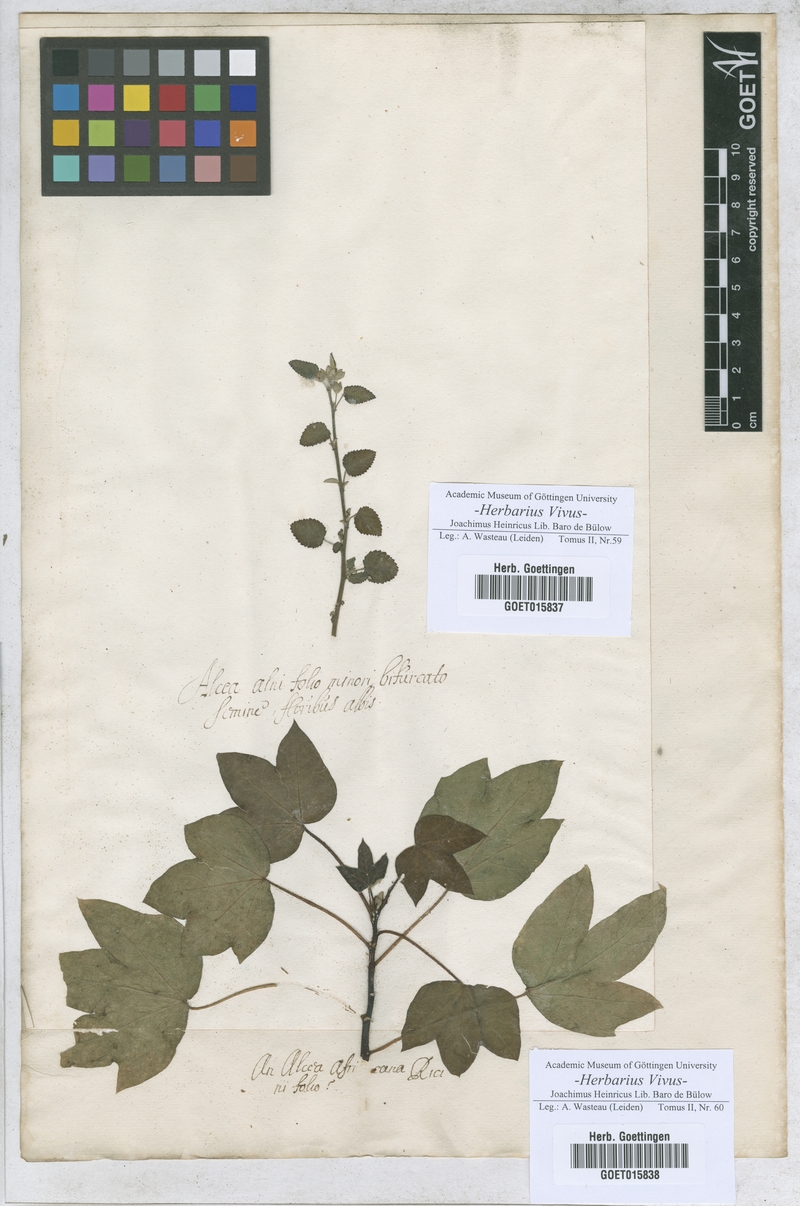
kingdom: Plantae
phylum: Tracheophyta
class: Magnoliopsida
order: Malvales
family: Malvaceae
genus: Alcea
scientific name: Alcea
